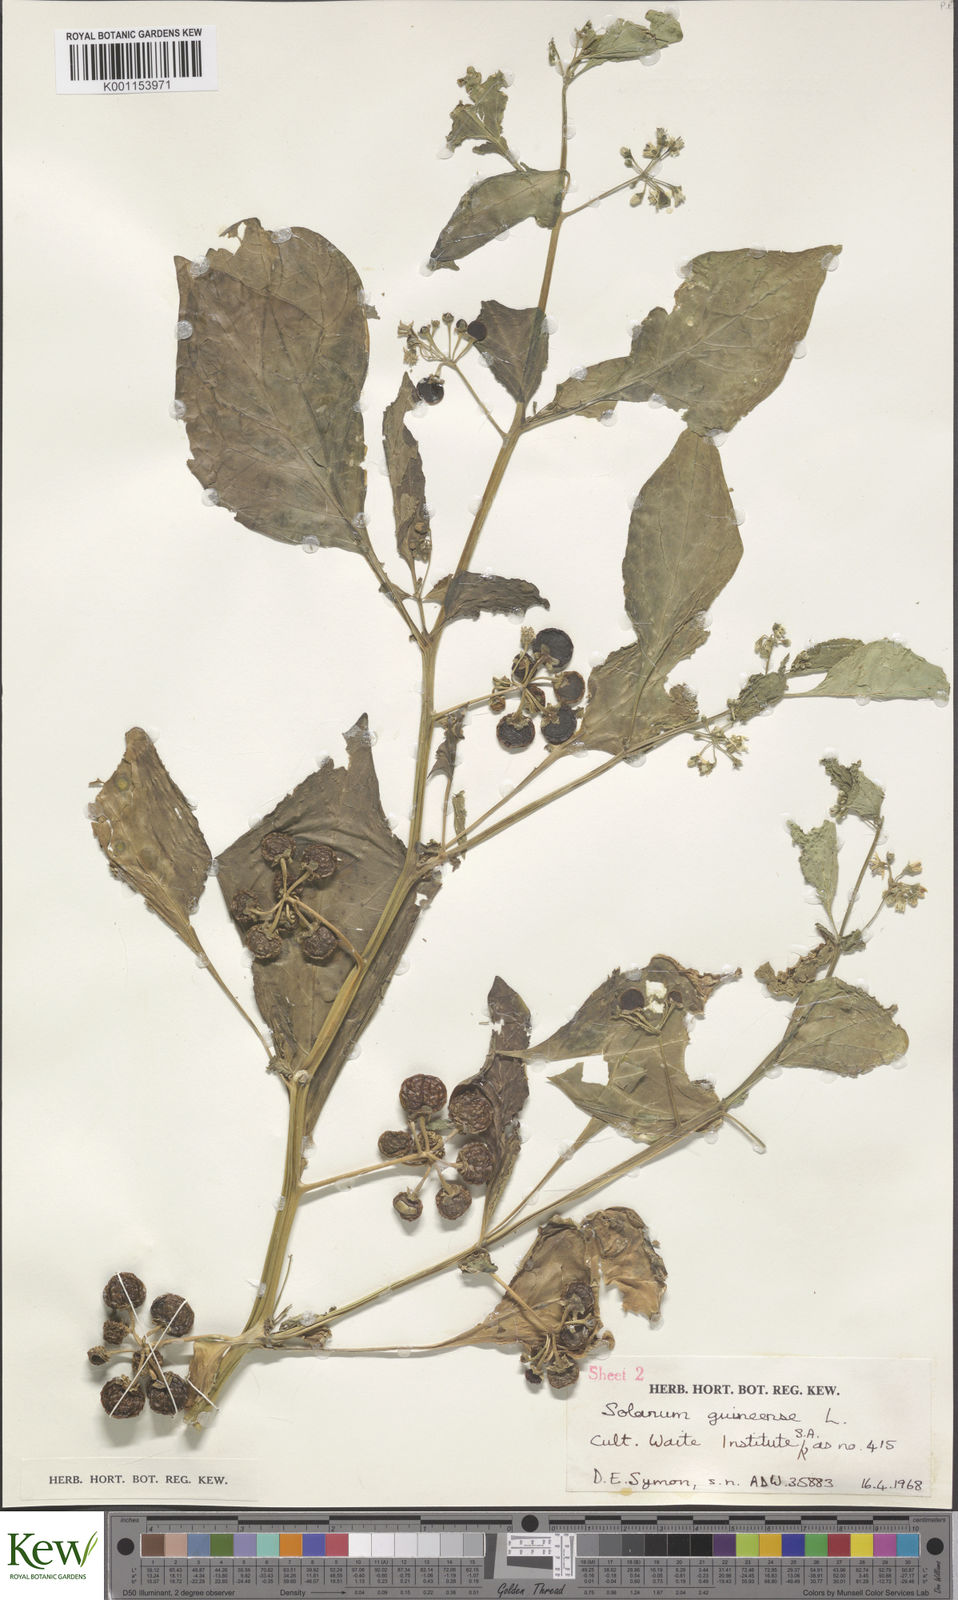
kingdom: Plantae
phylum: Tracheophyta
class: Magnoliopsida
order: Solanales
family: Solanaceae
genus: Solanum
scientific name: Solanum scabrum
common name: Garden-huckleberry
